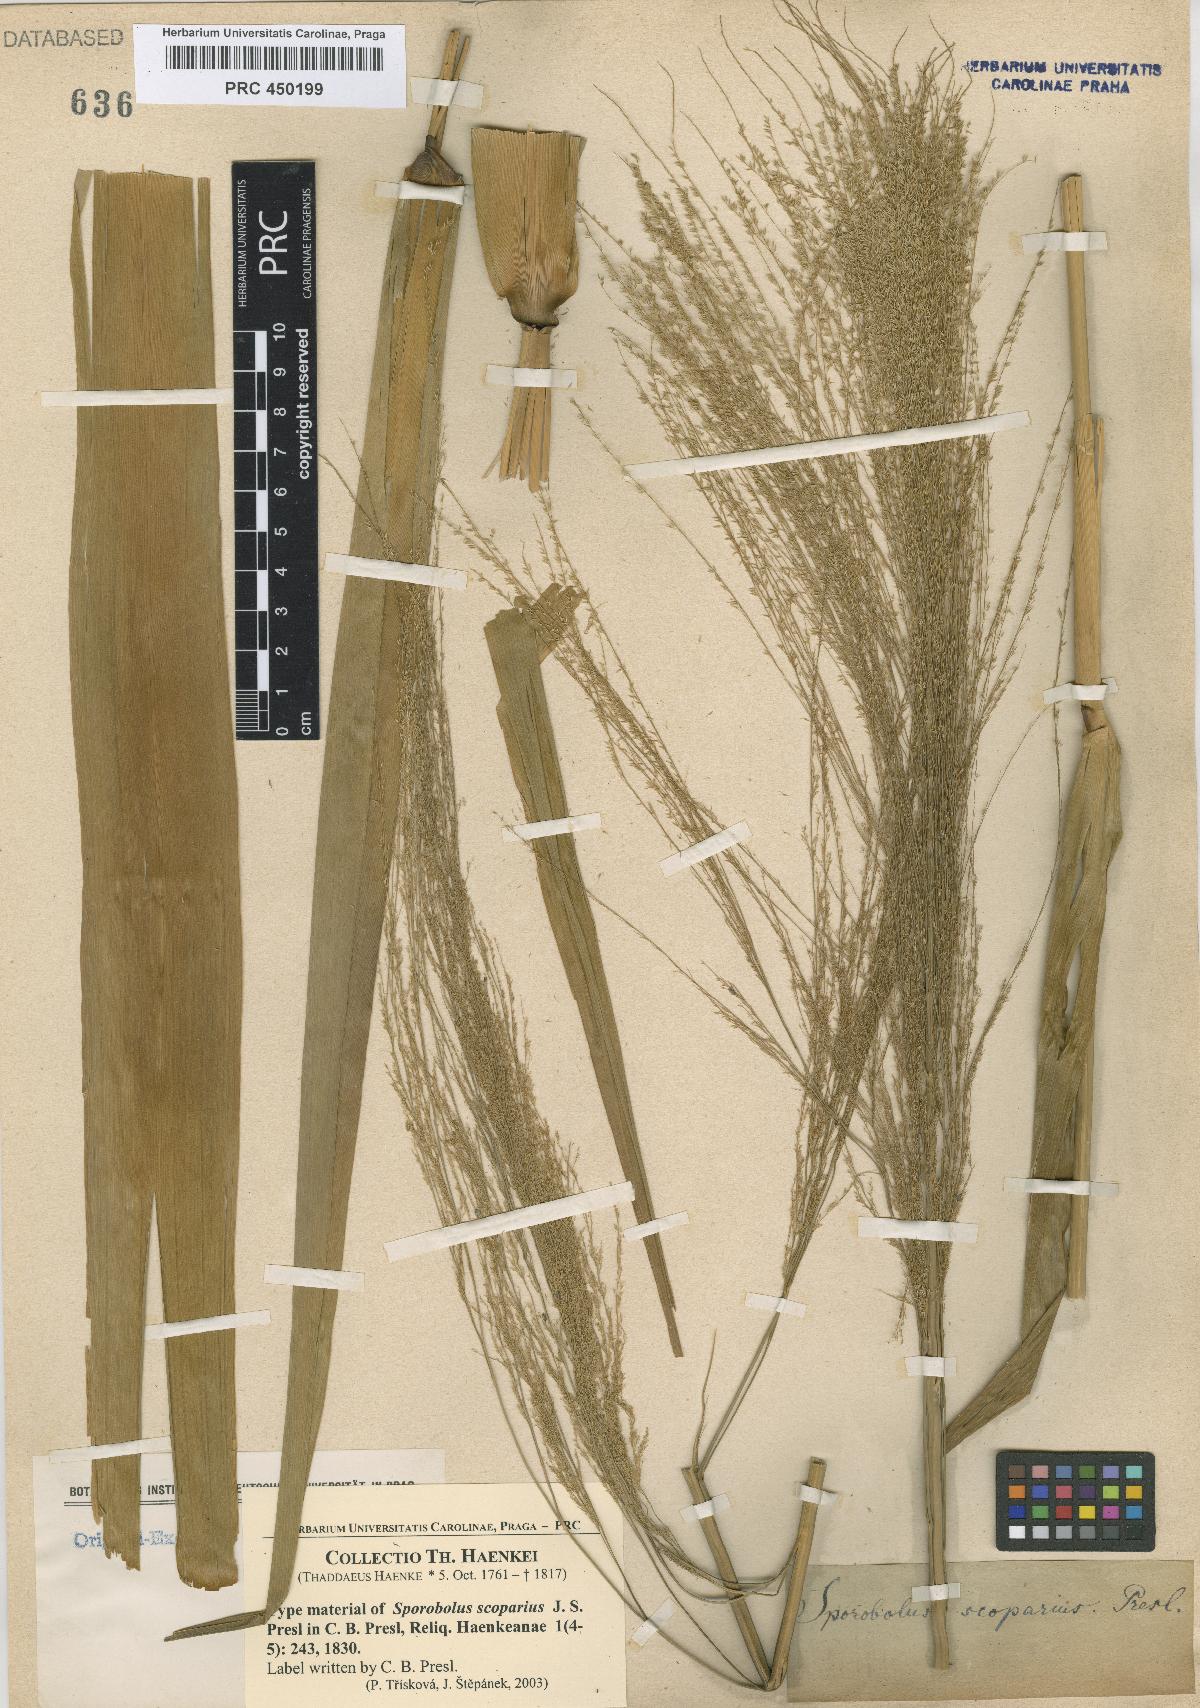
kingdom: Plantae
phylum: Tracheophyta
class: Liliopsida
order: Poales
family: Poaceae
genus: Thysanolaena
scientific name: Thysanolaena latifolia
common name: Tiger grass
